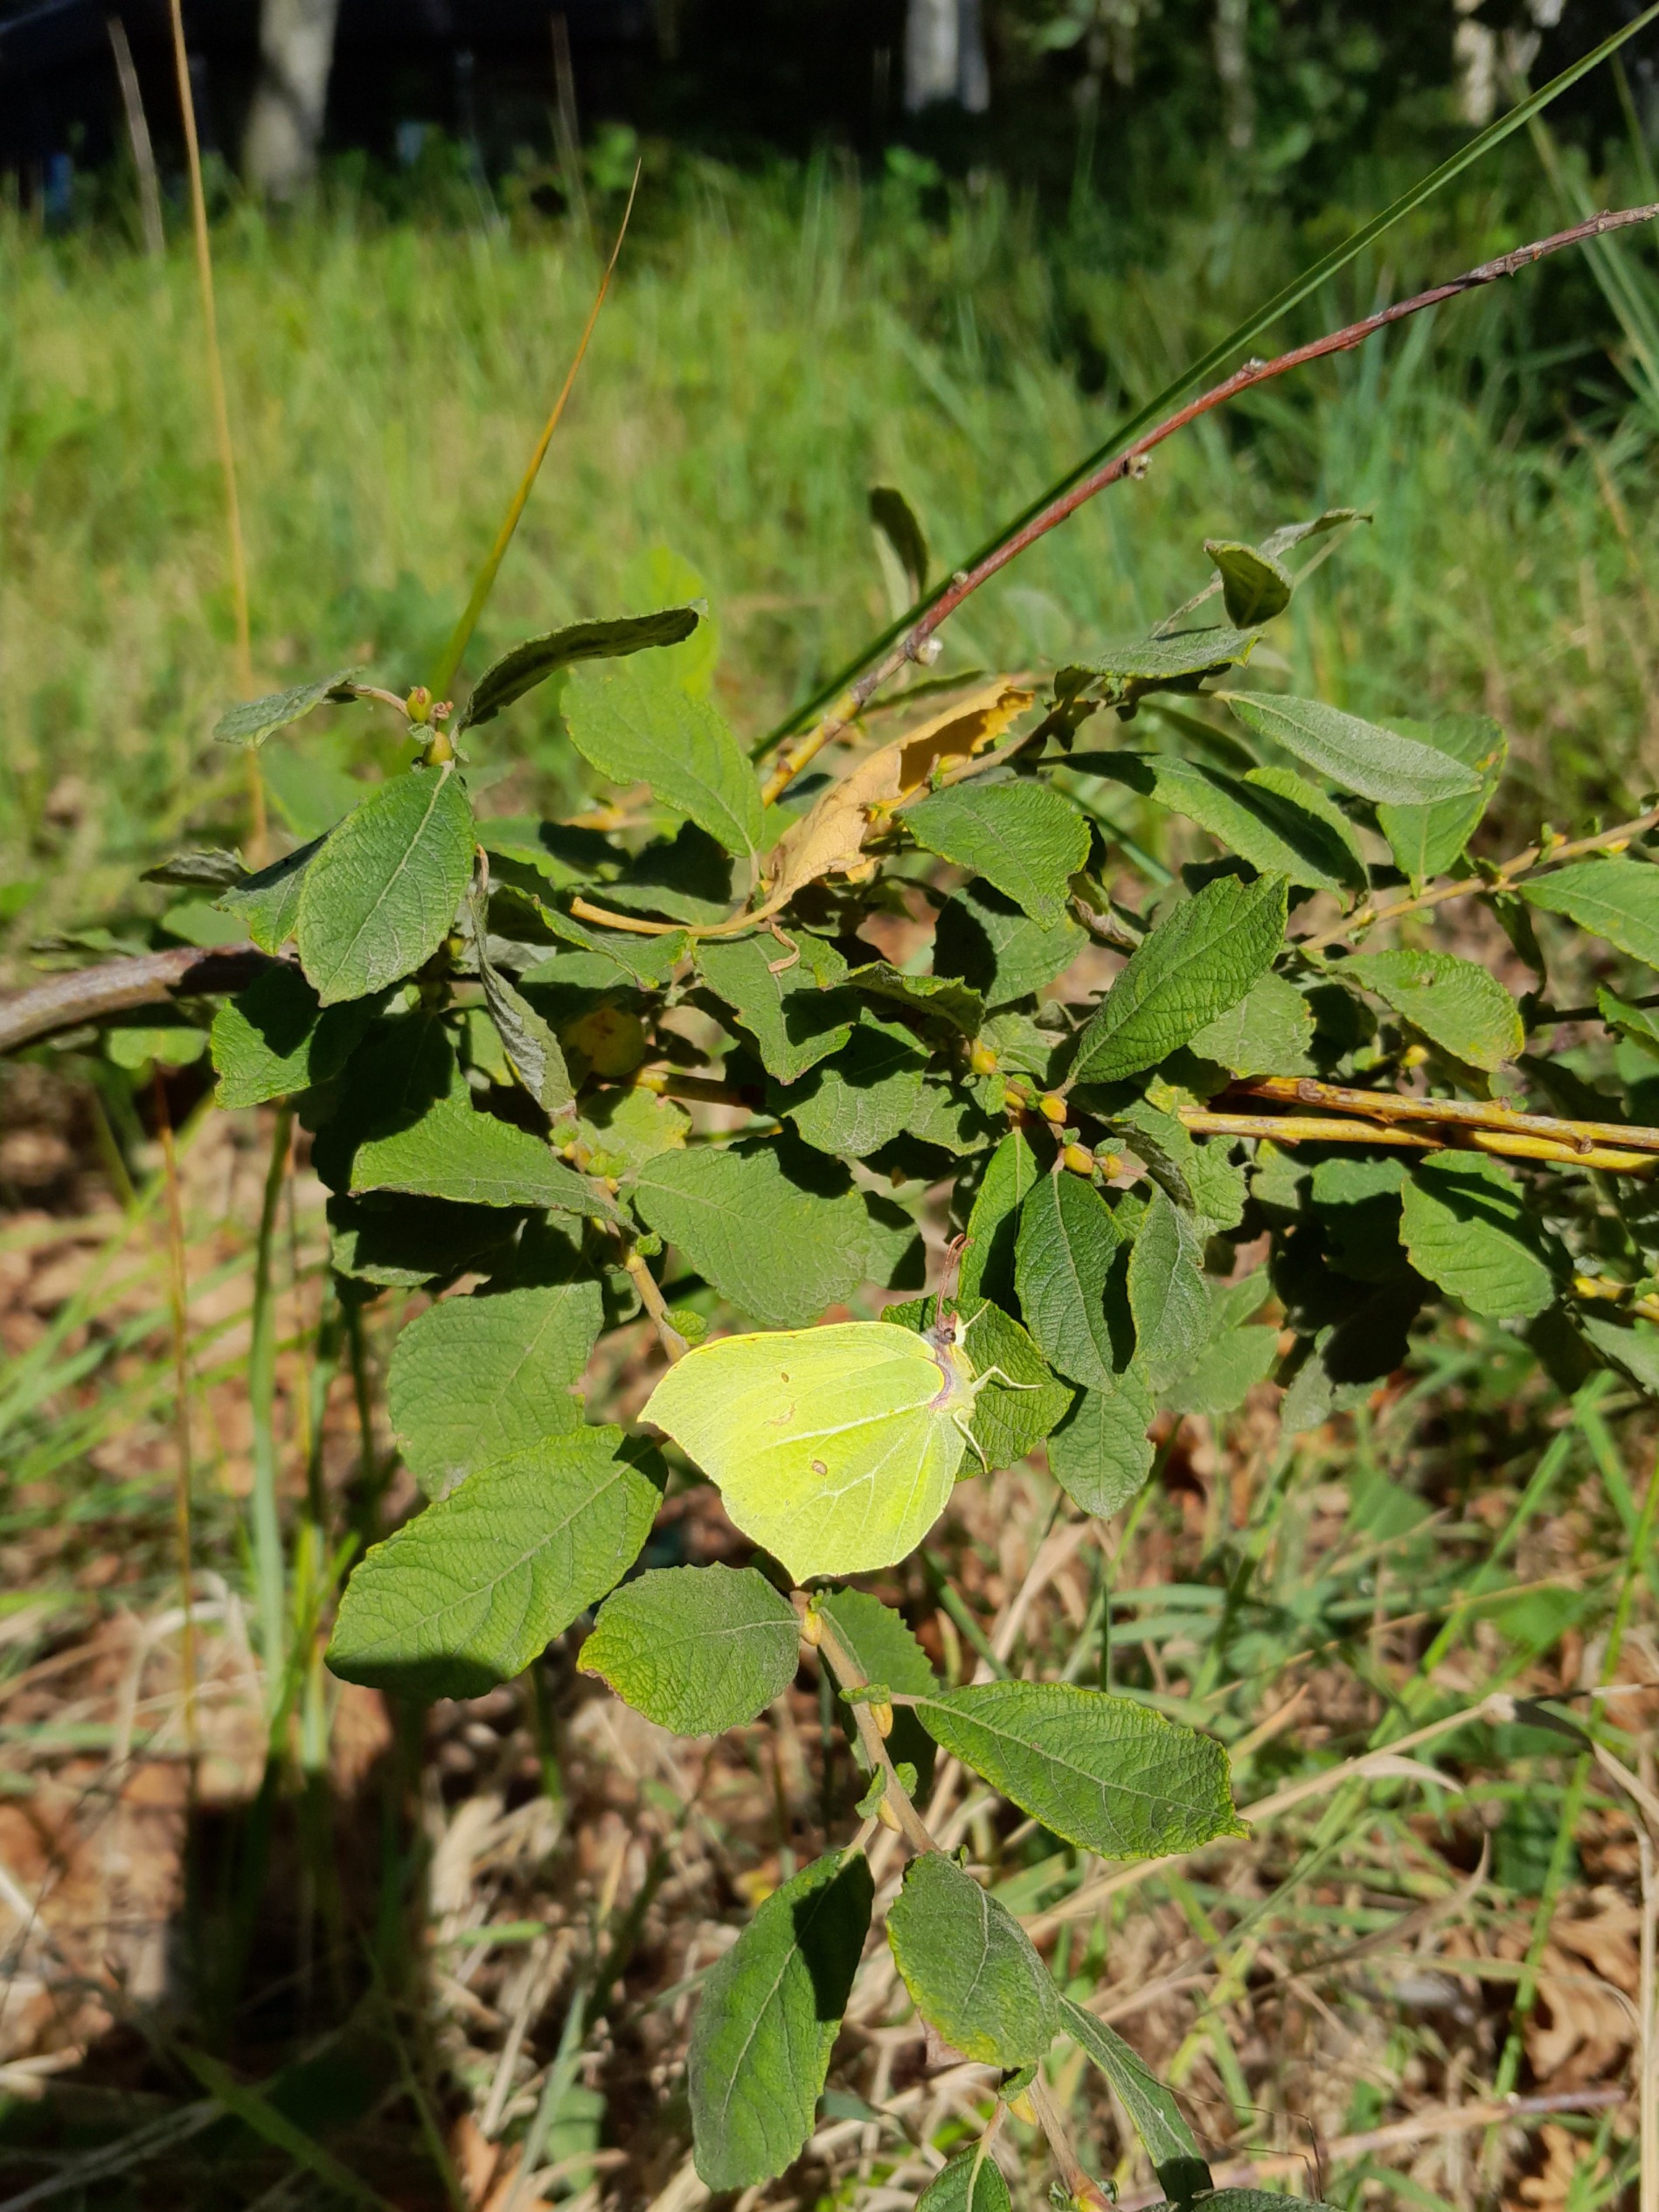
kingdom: Animalia
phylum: Arthropoda
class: Insecta
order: Lepidoptera
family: Pieridae
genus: Gonepteryx
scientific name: Gonepteryx rhamni
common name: Citronsommerfugl
